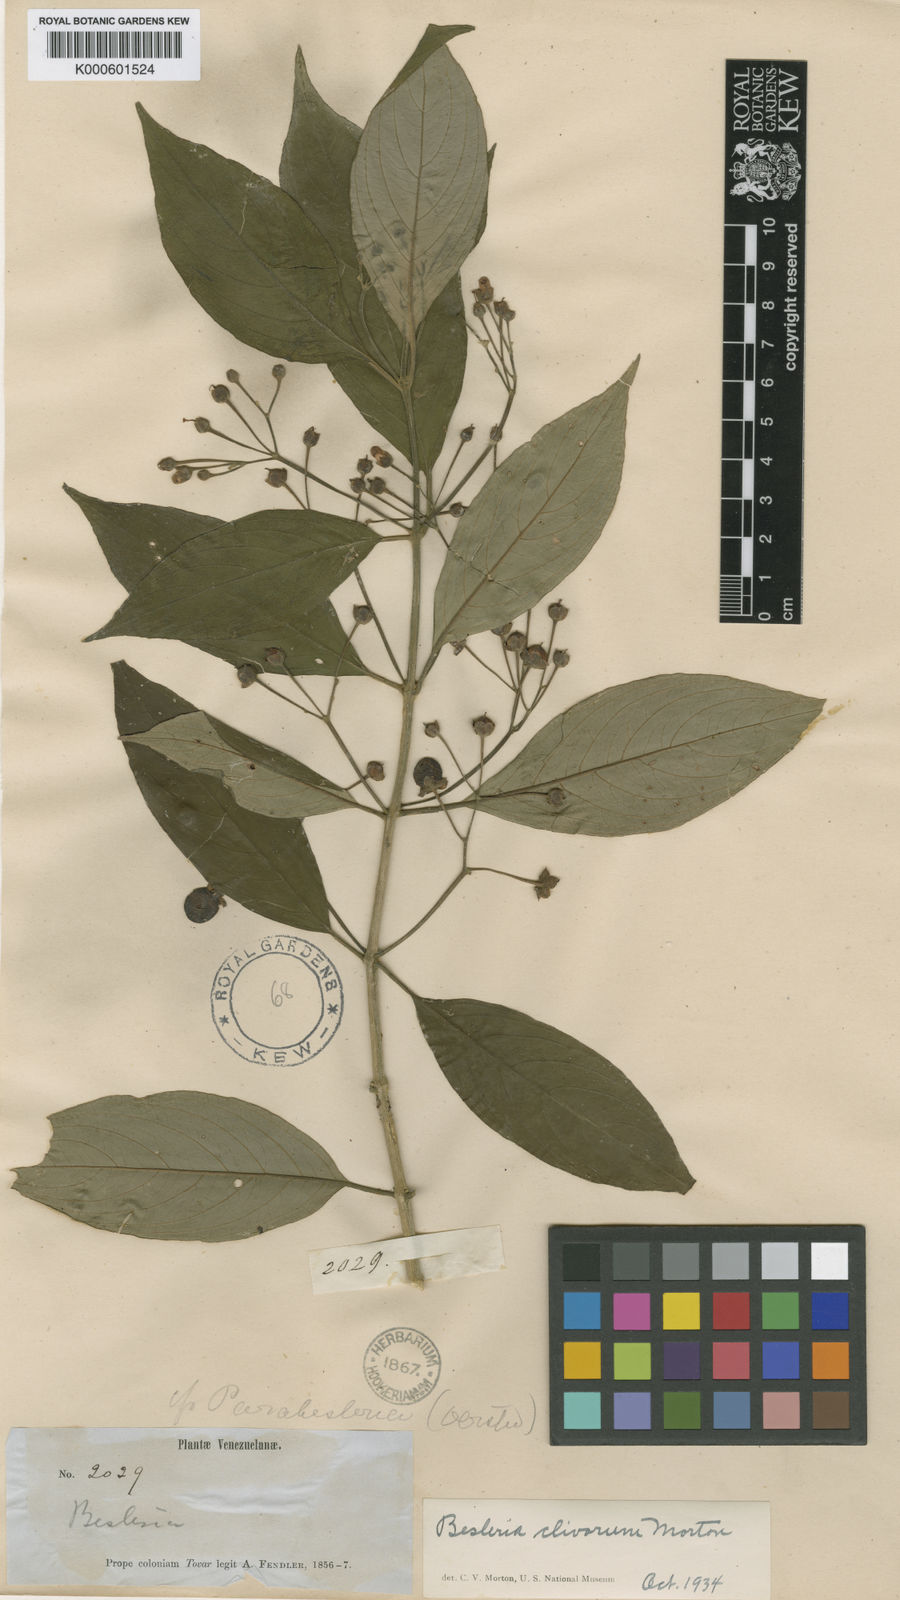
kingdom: Plantae
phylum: Tracheophyta
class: Magnoliopsida
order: Lamiales
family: Gesneriaceae
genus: Besleria
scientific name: Besleria clivorum
